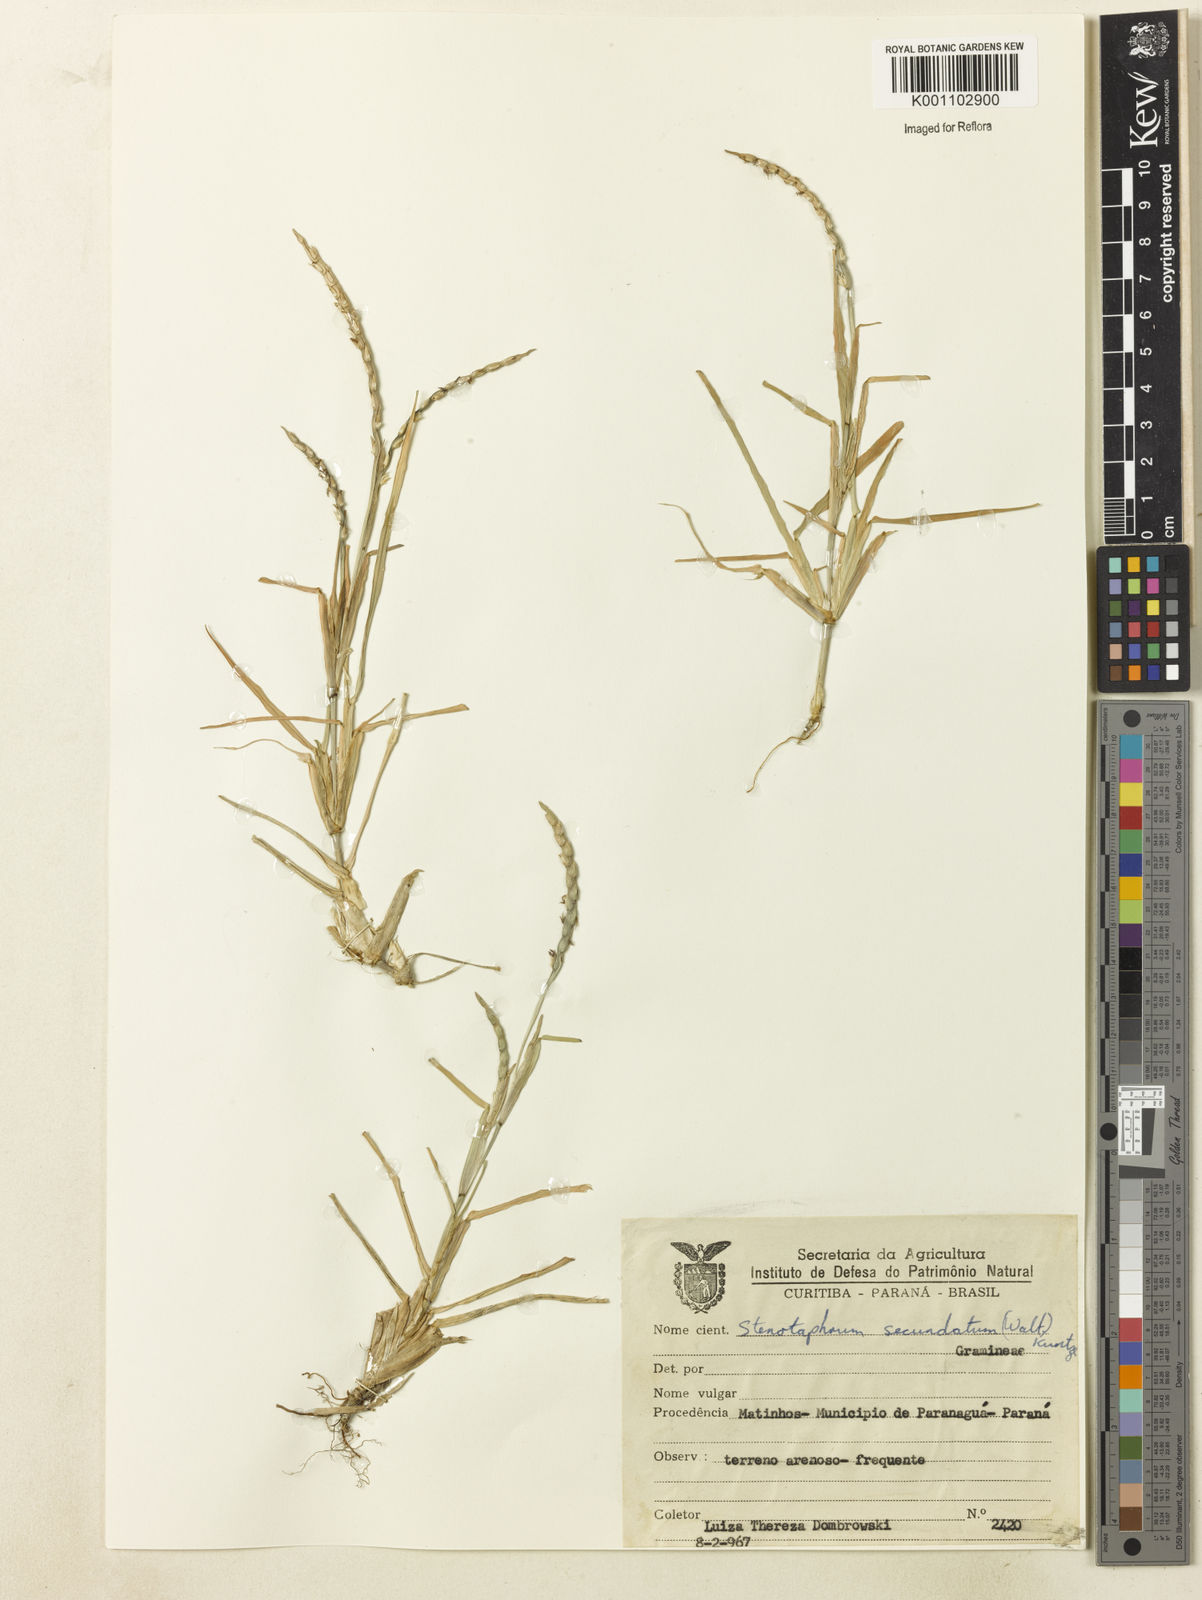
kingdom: Plantae
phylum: Tracheophyta
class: Liliopsida
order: Poales
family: Poaceae
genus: Stenotaphrum
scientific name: Stenotaphrum secundatum
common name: St. augustine grass
